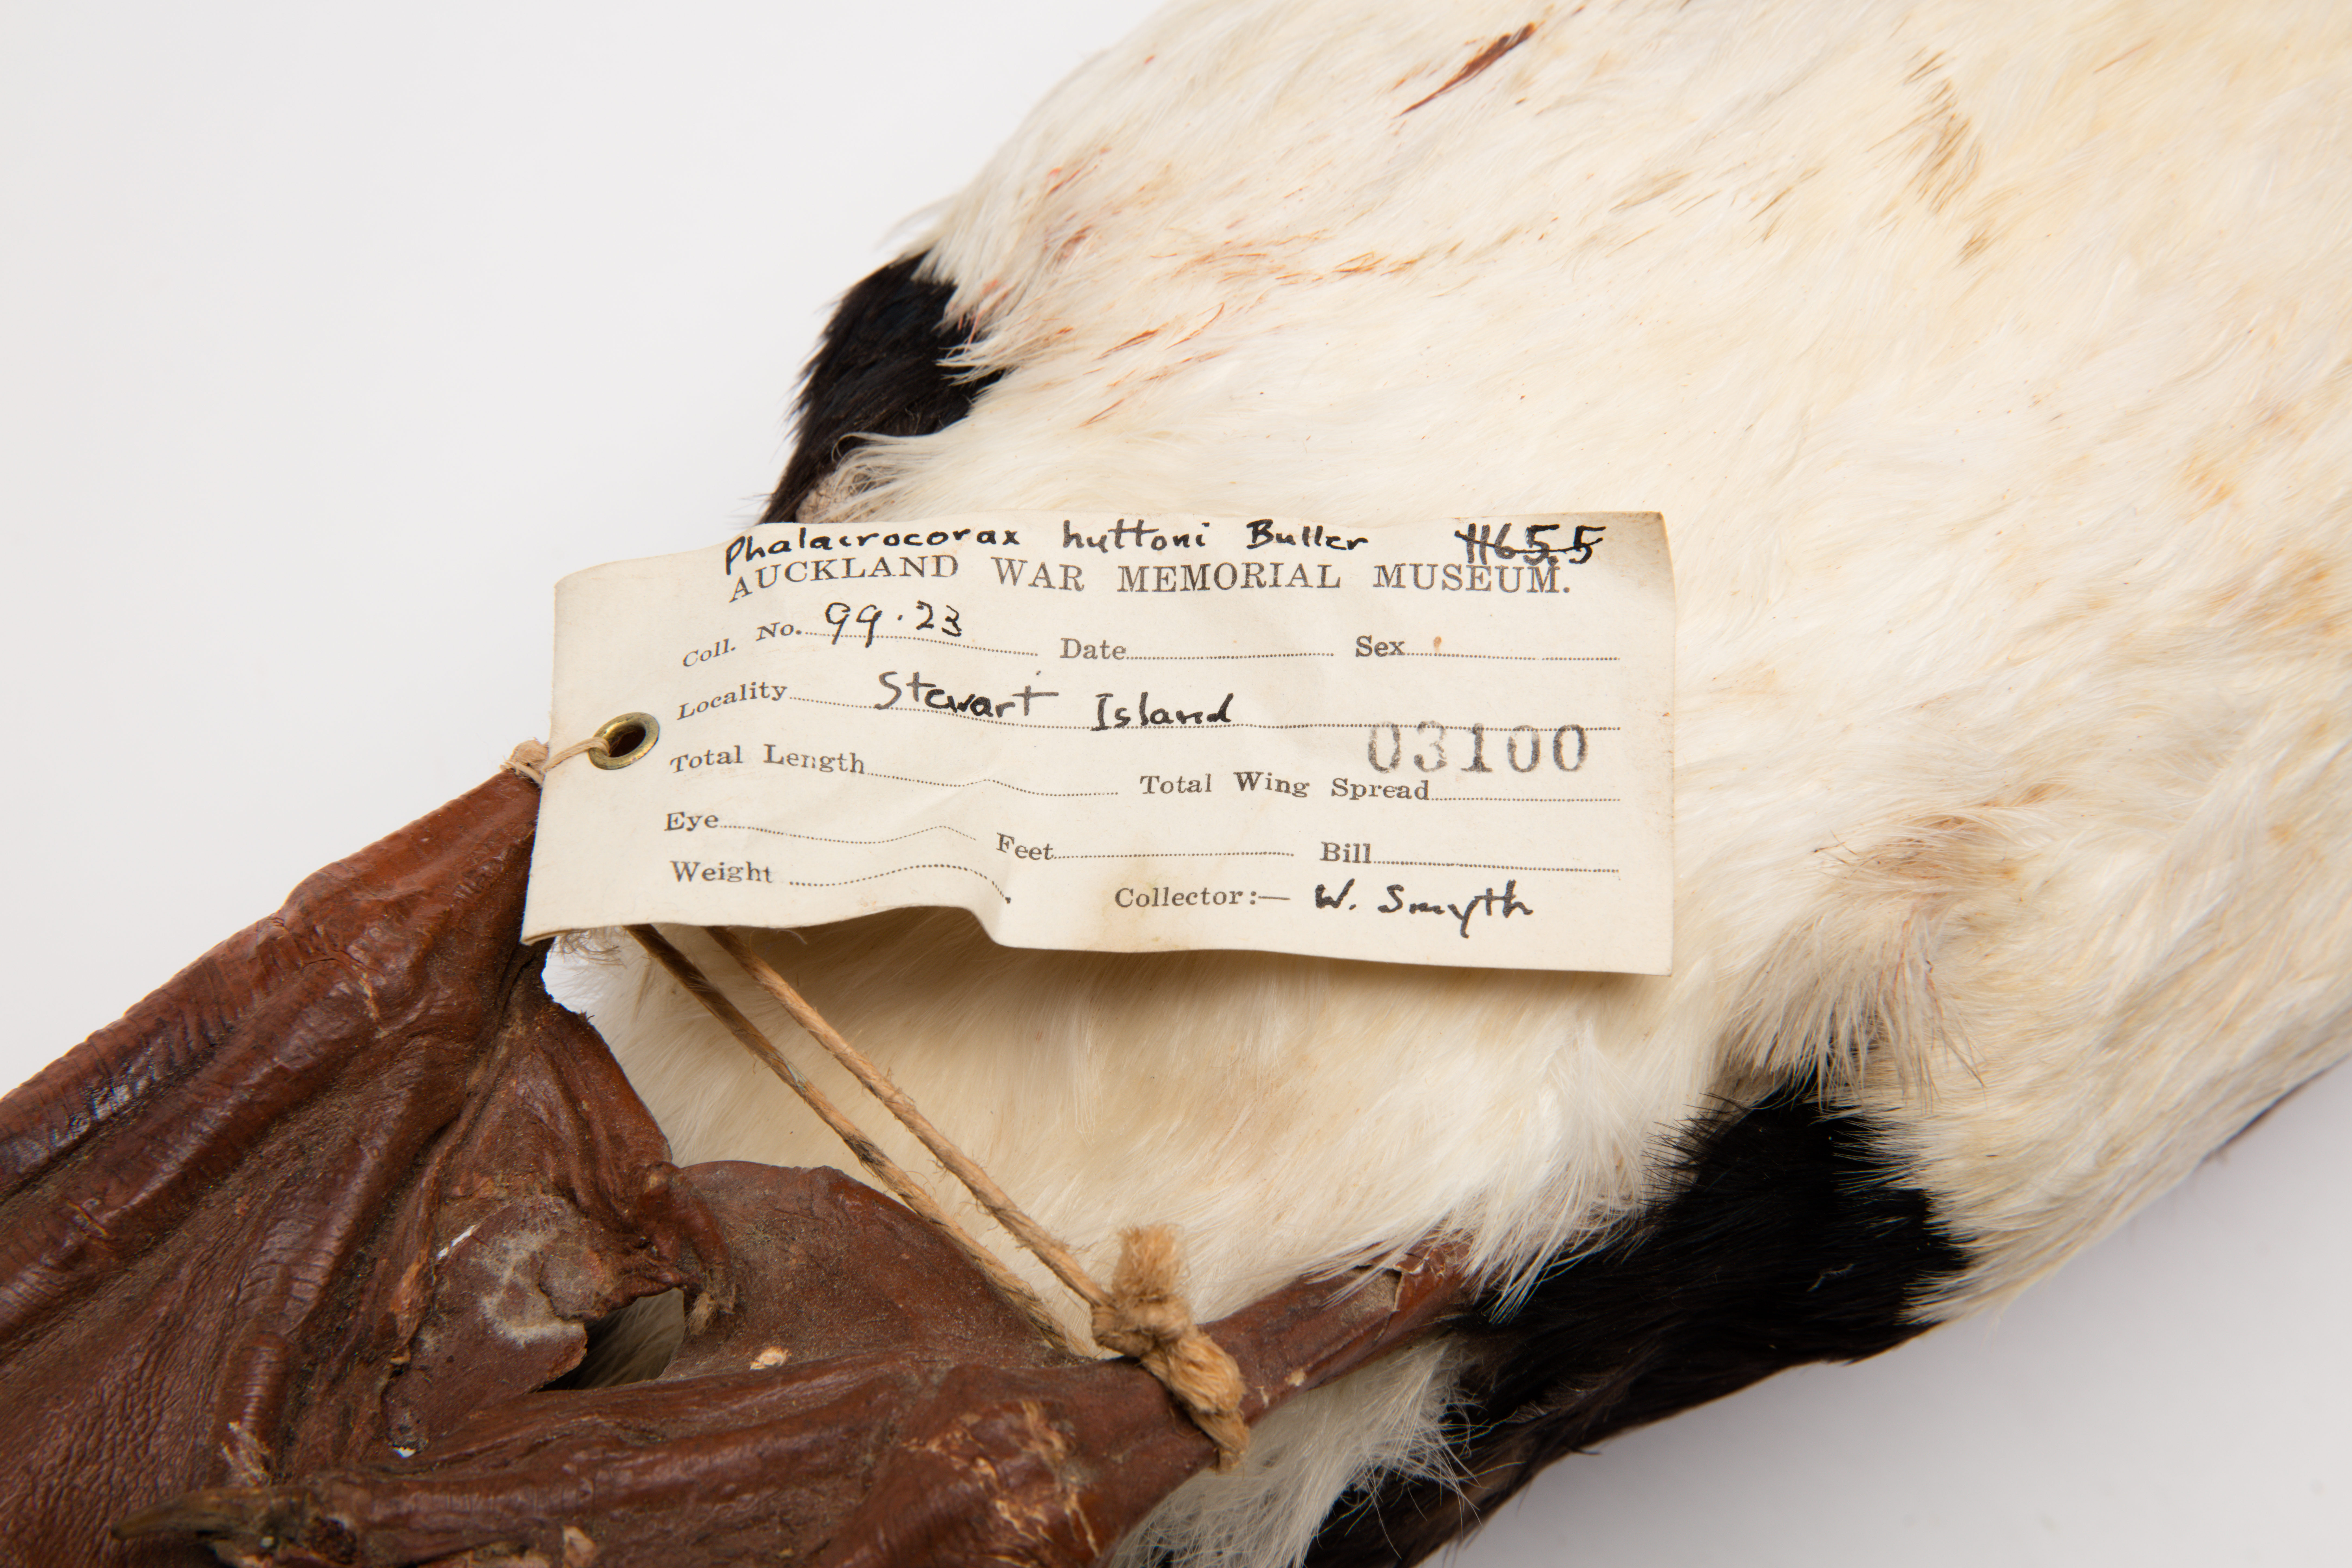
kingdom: Animalia
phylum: Chordata
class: Aves
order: Suliformes
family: Phalacrocoracidae
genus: Leucocarbo
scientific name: Leucocarbo chalconotus
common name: Stewart shag
